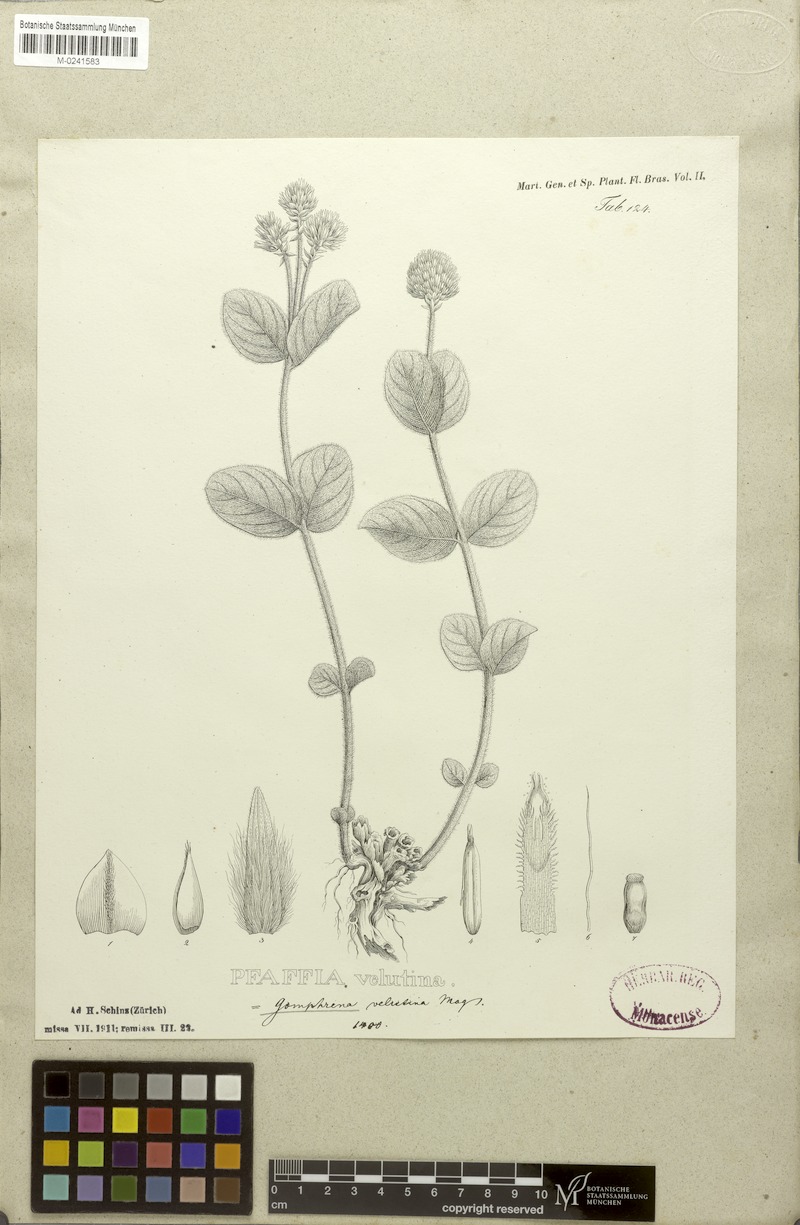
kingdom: Plantae
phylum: Tracheophyta
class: Magnoliopsida
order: Caryophyllales
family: Amaranthaceae
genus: Pfaffia
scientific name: Pfaffia velutina
